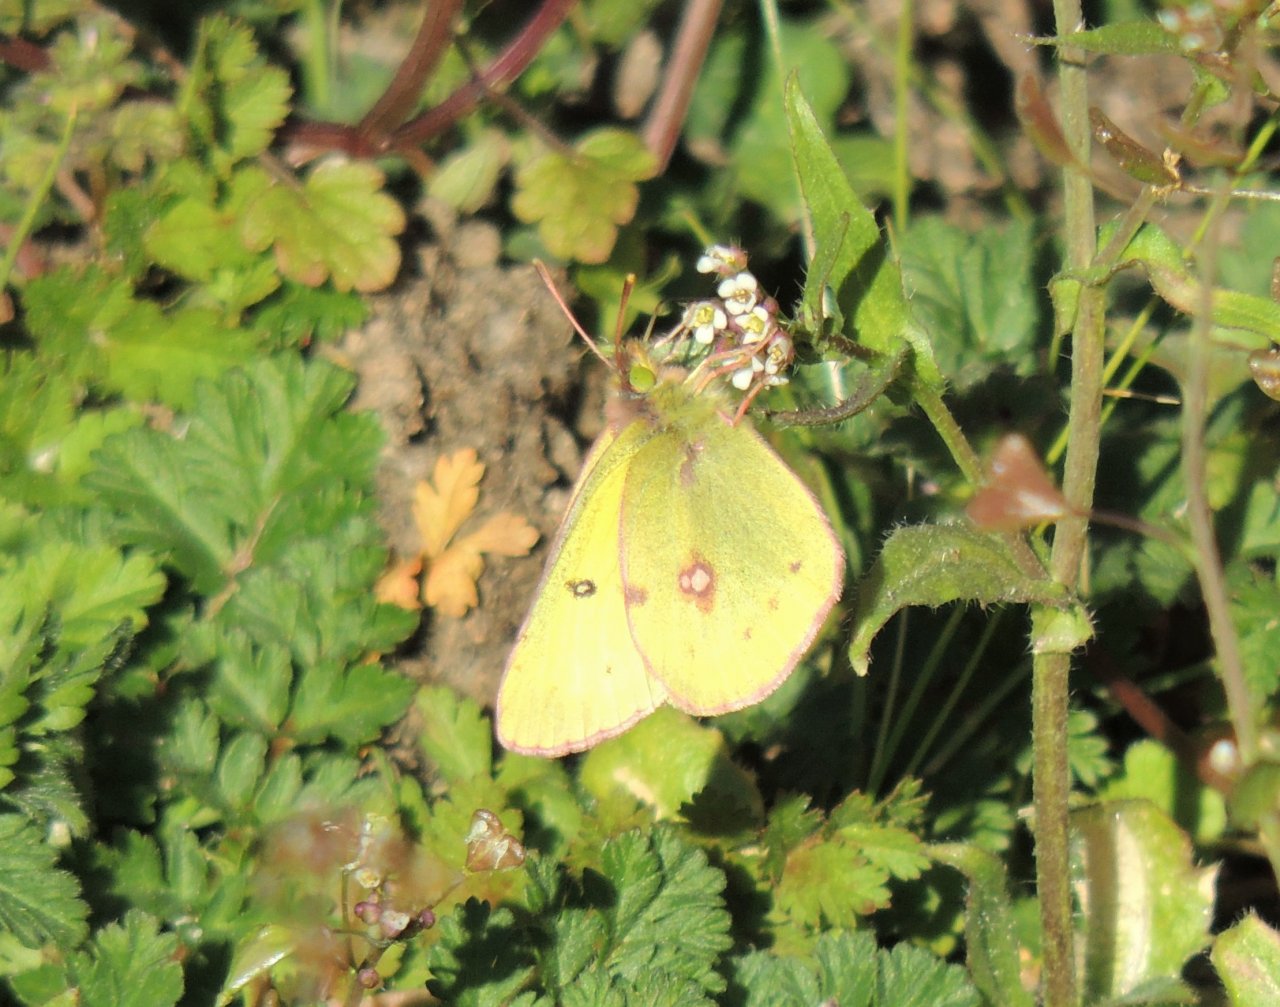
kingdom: Animalia
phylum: Arthropoda
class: Insecta
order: Lepidoptera
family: Pieridae
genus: Colias
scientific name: Colias eurytheme
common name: Orange Sulphur
